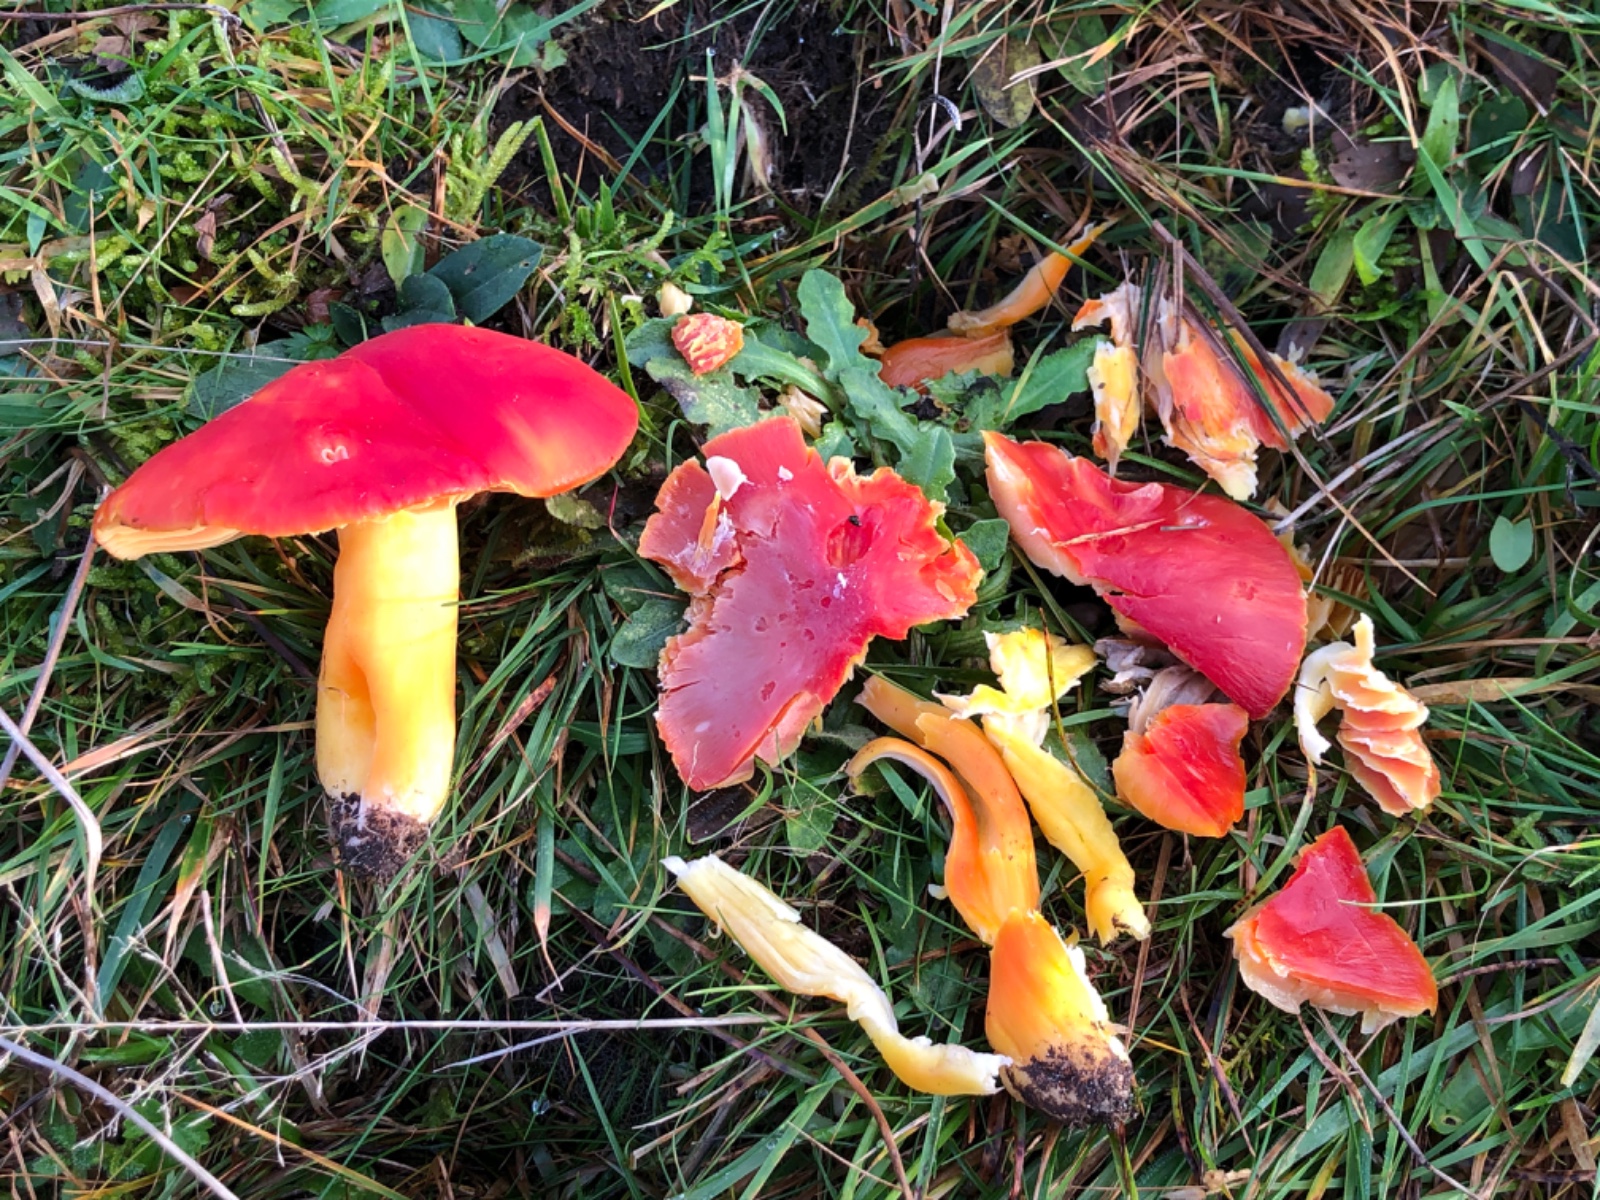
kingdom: Fungi
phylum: Basidiomycota
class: Agaricomycetes
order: Agaricales
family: Hygrophoraceae
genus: Hygrocybe
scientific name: Hygrocybe splendidissima
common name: knaldrød vokshat
